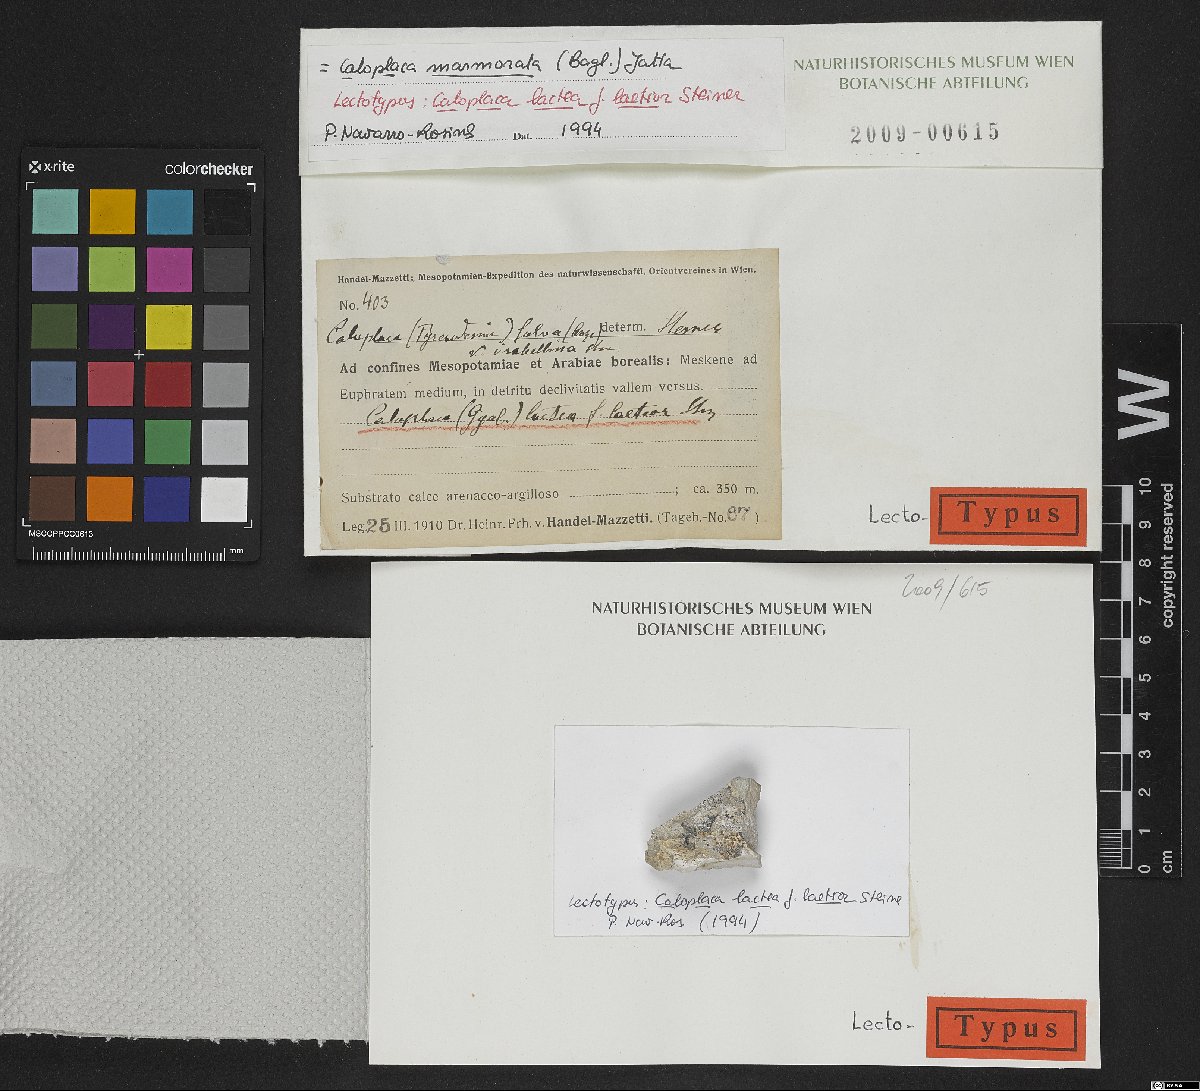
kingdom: Fungi
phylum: Ascomycota
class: Lecanoromycetes
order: Teloschistales
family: Teloschistaceae
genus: Xanthocarpia
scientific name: Xanthocarpia marmorata
